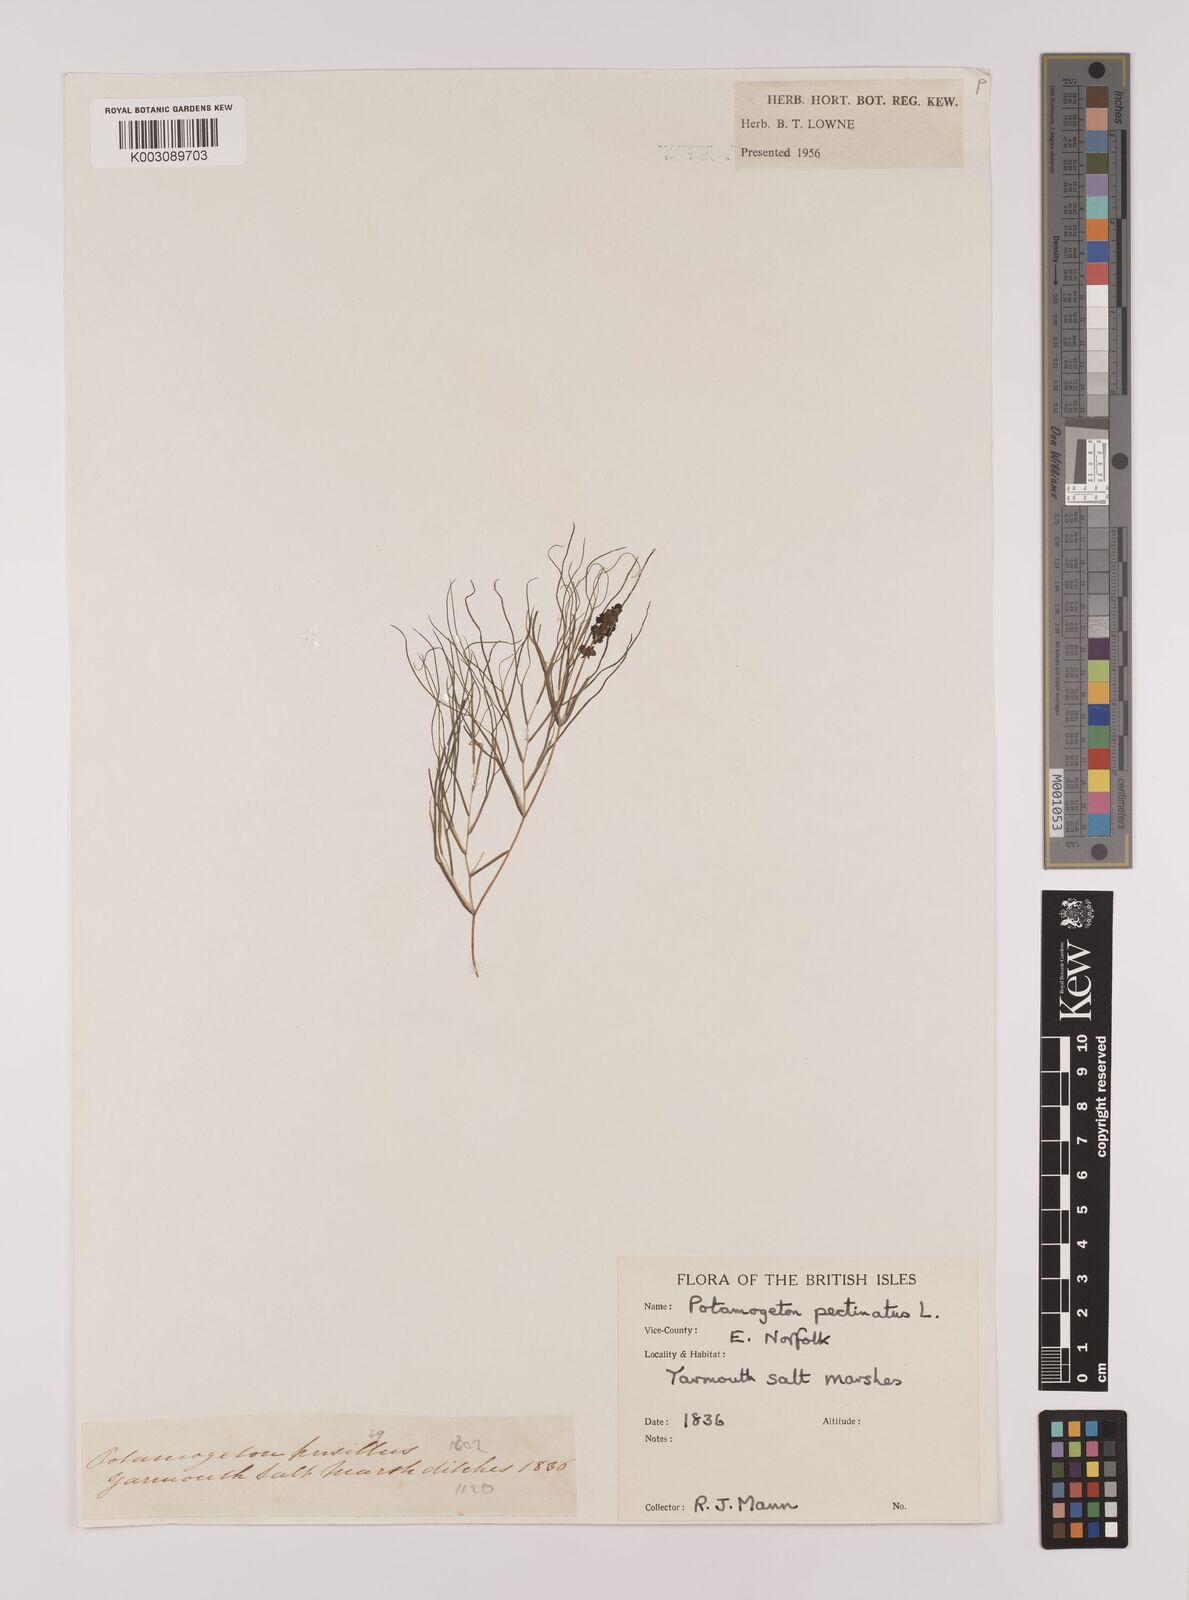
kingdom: Plantae
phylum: Tracheophyta
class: Liliopsida
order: Alismatales
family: Potamogetonaceae
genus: Stuckenia
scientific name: Stuckenia pectinata
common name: Sago pondweed
